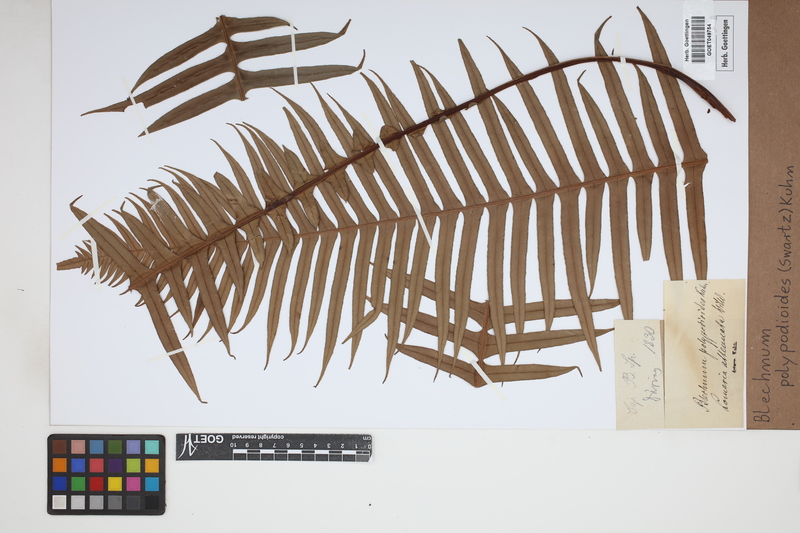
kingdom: Plantae
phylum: Tracheophyta
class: Polypodiopsida
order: Polypodiales
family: Blechnaceae
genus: Lomaridium
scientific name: Lomaridium fragile
